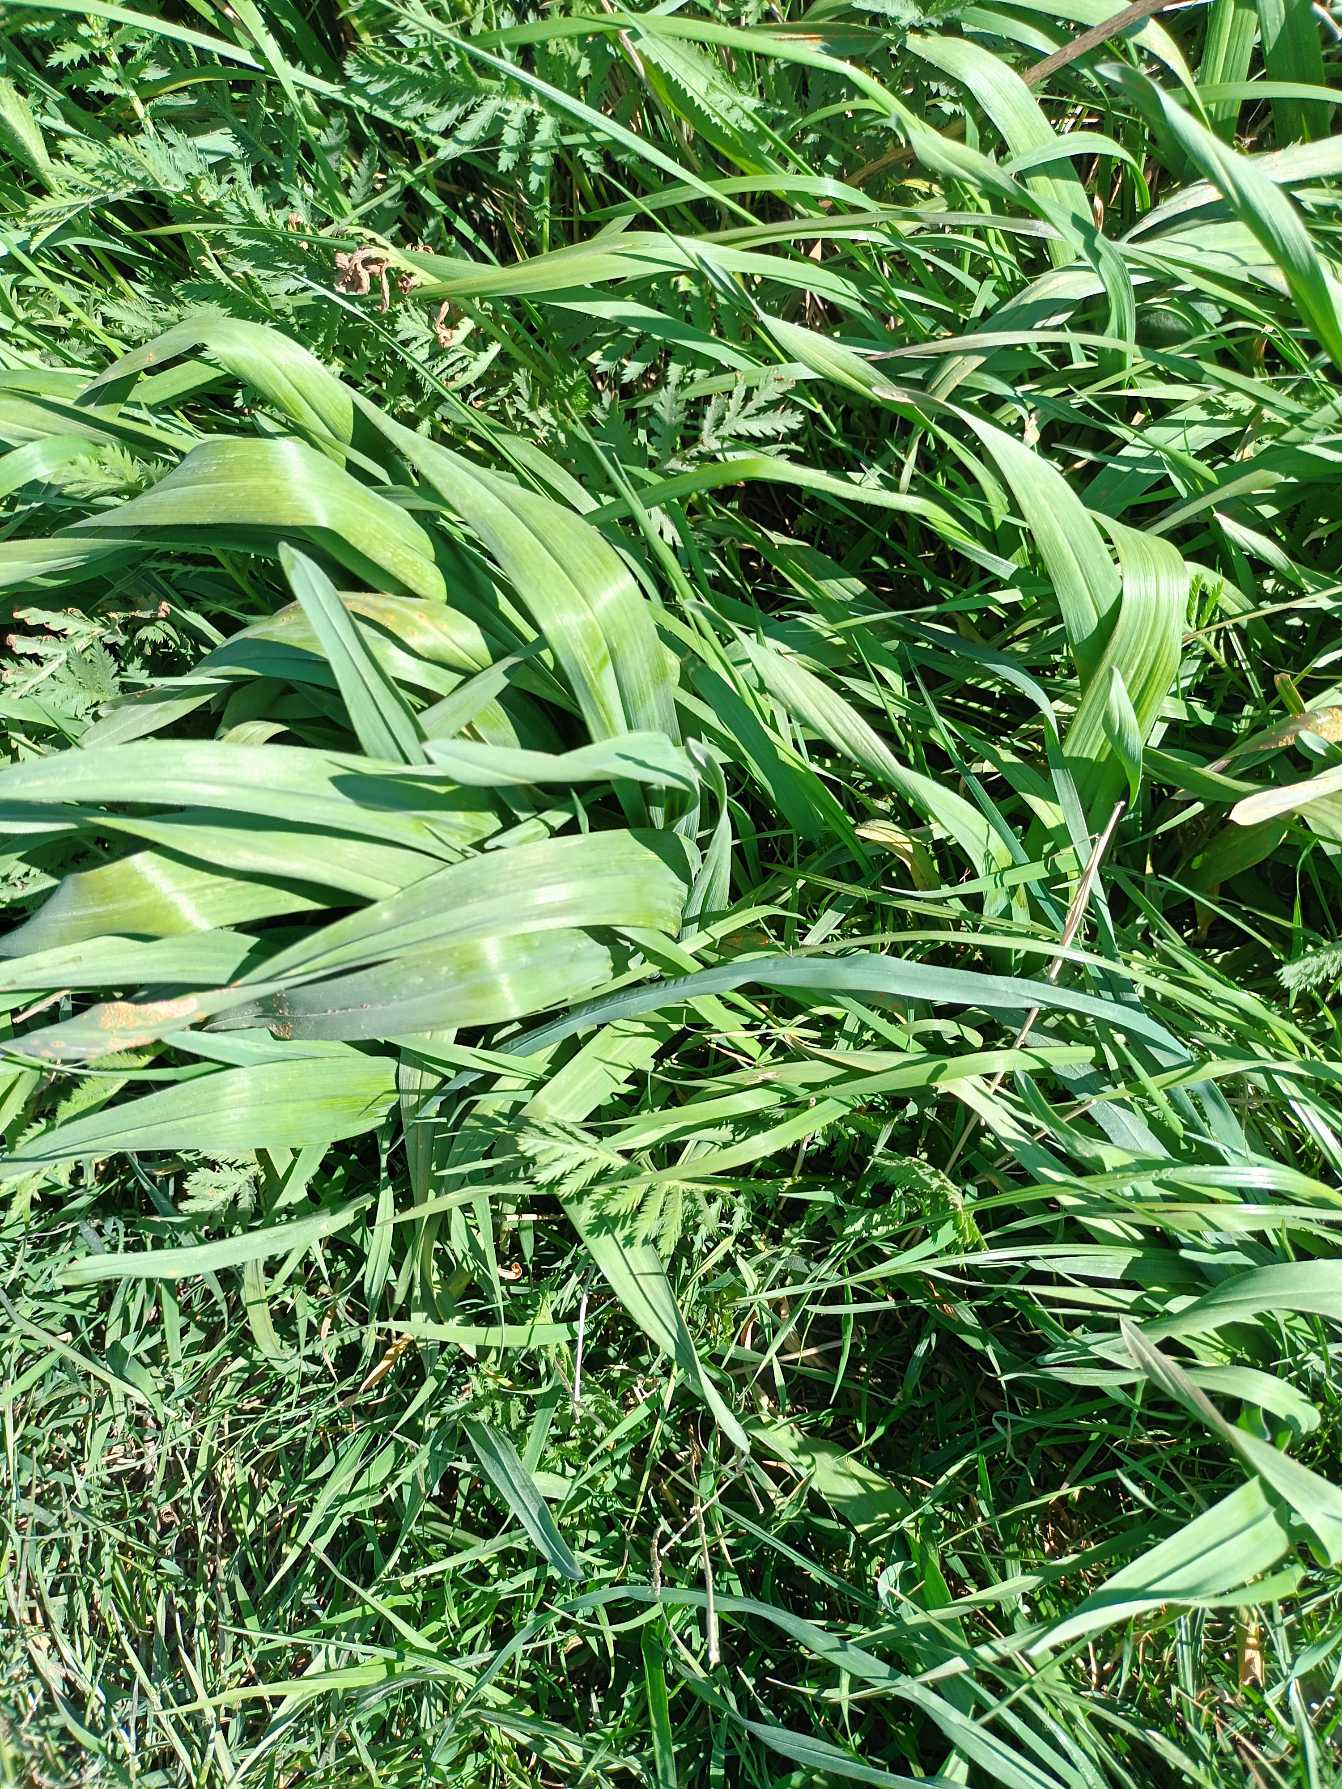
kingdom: Plantae
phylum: Tracheophyta
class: Liliopsida
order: Asparagales
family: Amaryllidaceae
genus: Allium
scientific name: Allium scorodoprasum
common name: Skov-løg
